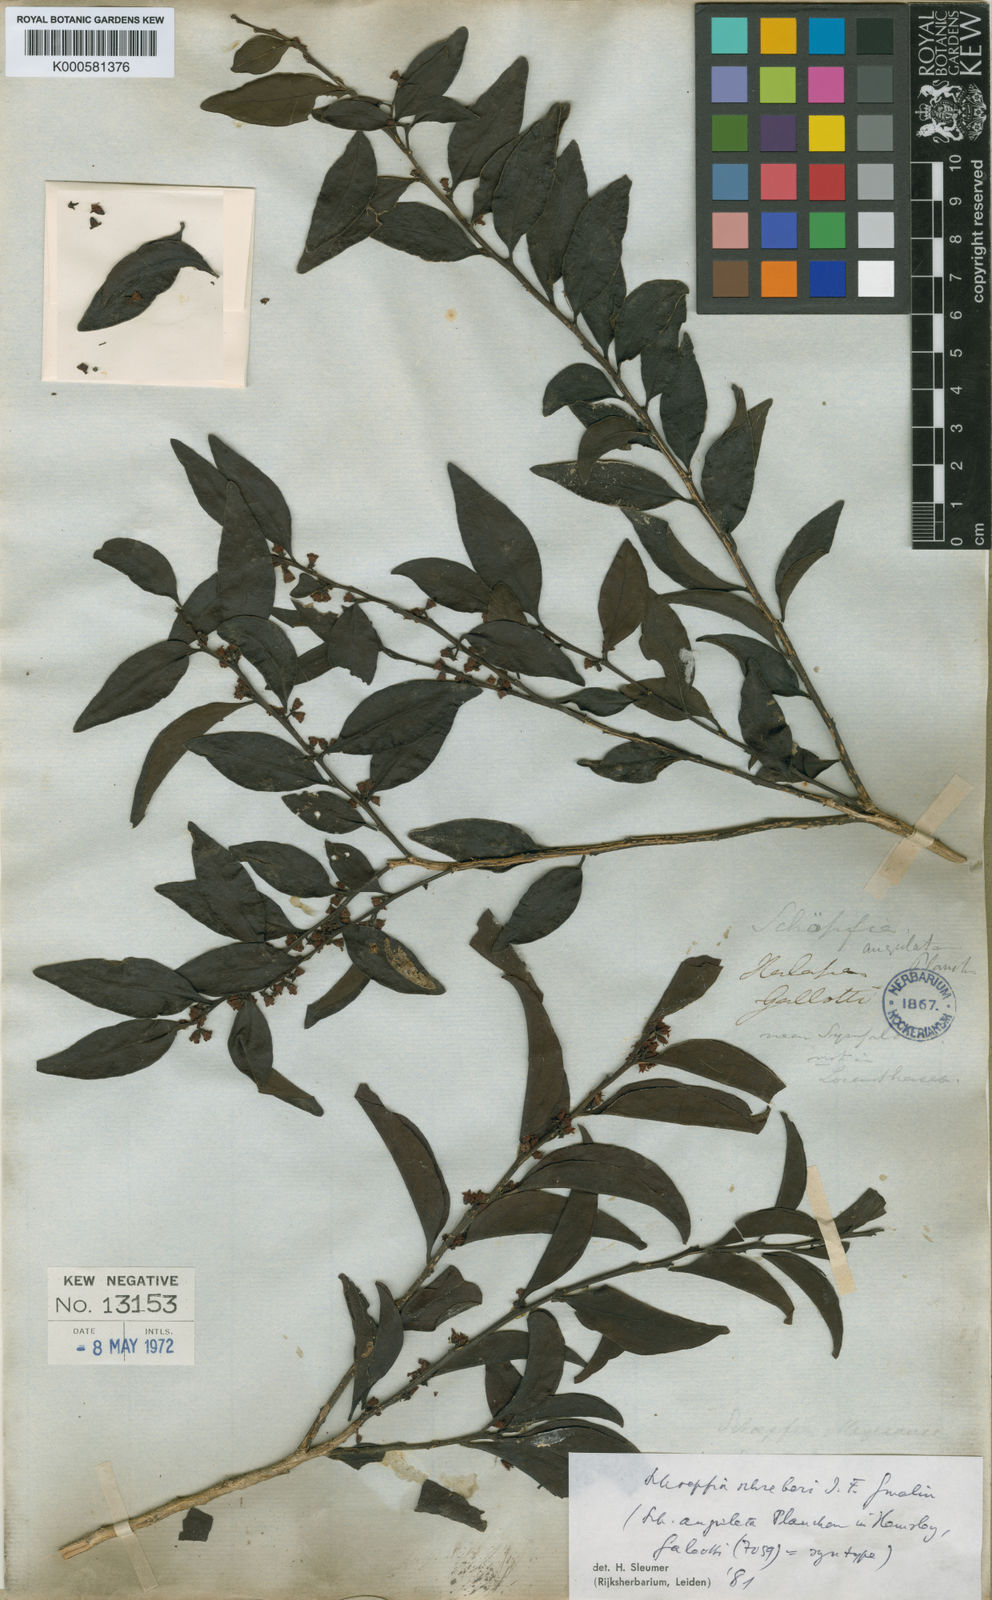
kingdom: Plantae
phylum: Tracheophyta
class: Magnoliopsida
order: Santalales
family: Schoepfiaceae
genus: Schoepfia
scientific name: Schoepfia schreberi
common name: Gulf graytwig
